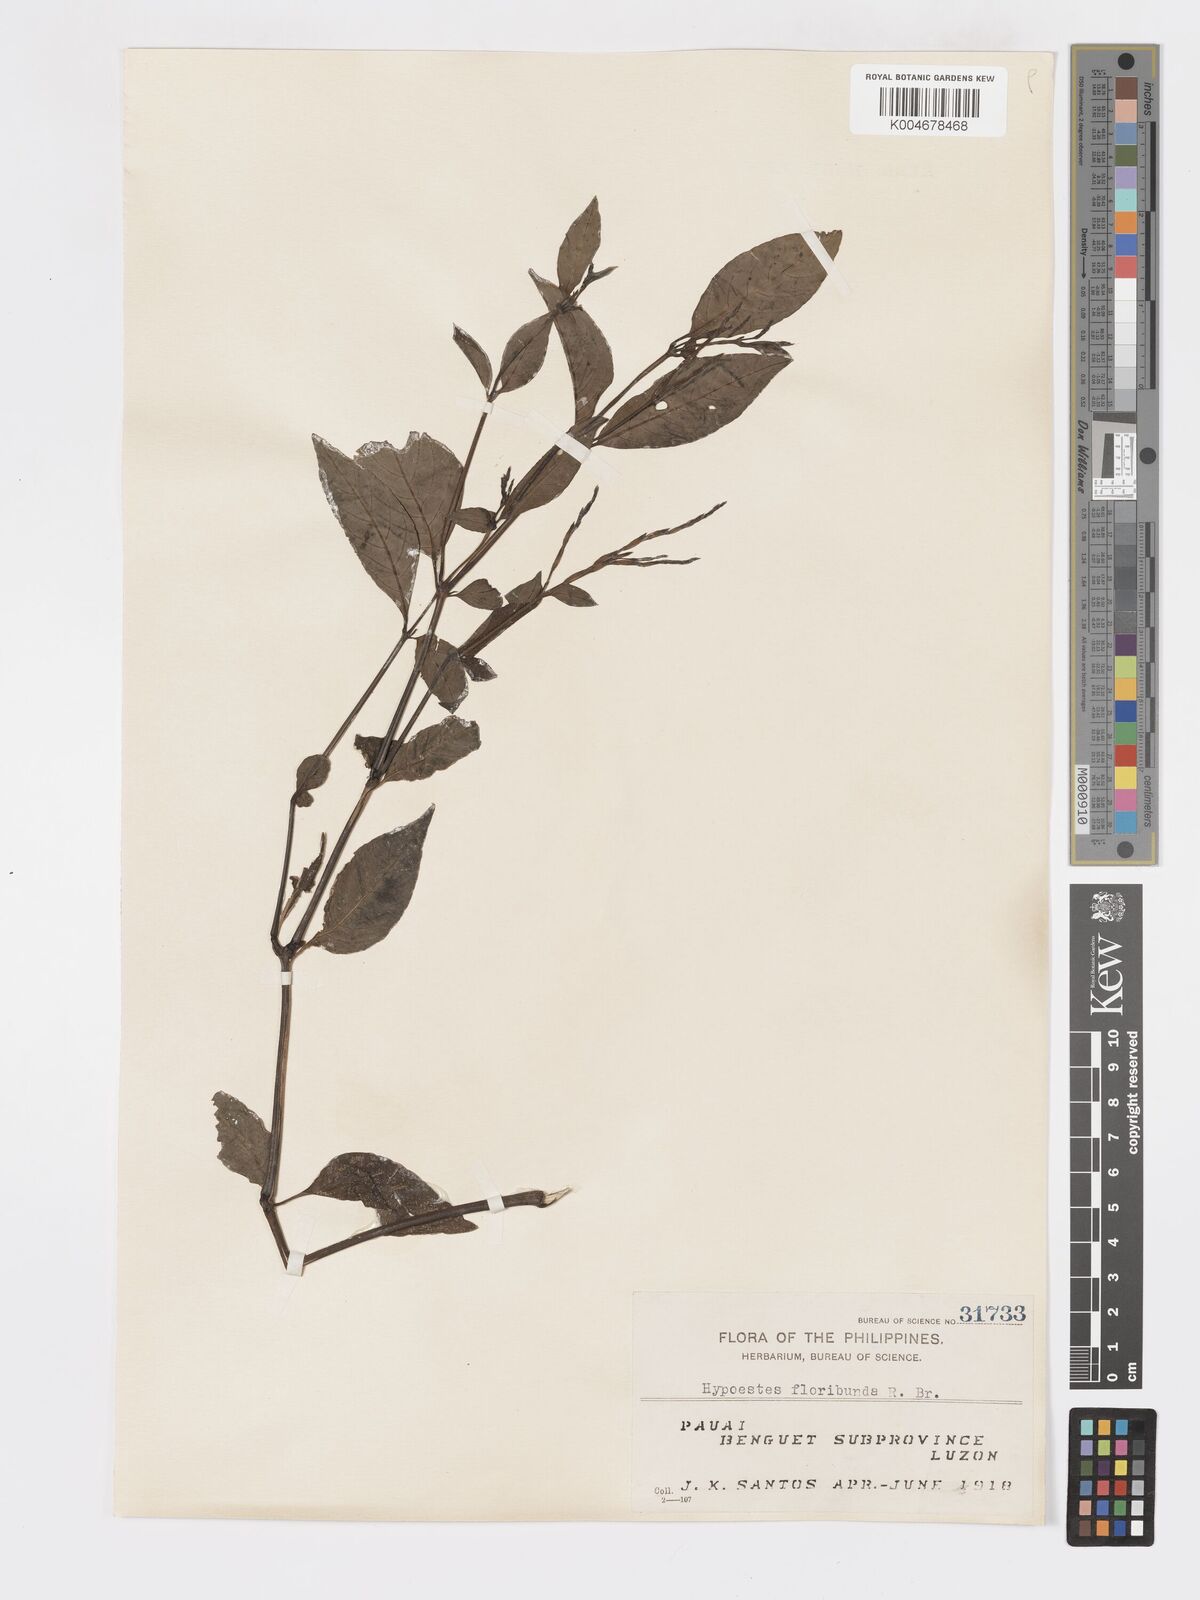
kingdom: Plantae
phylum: Tracheophyta
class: Magnoliopsida
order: Lamiales
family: Acanthaceae
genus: Hypoestes
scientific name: Hypoestes floribunda
